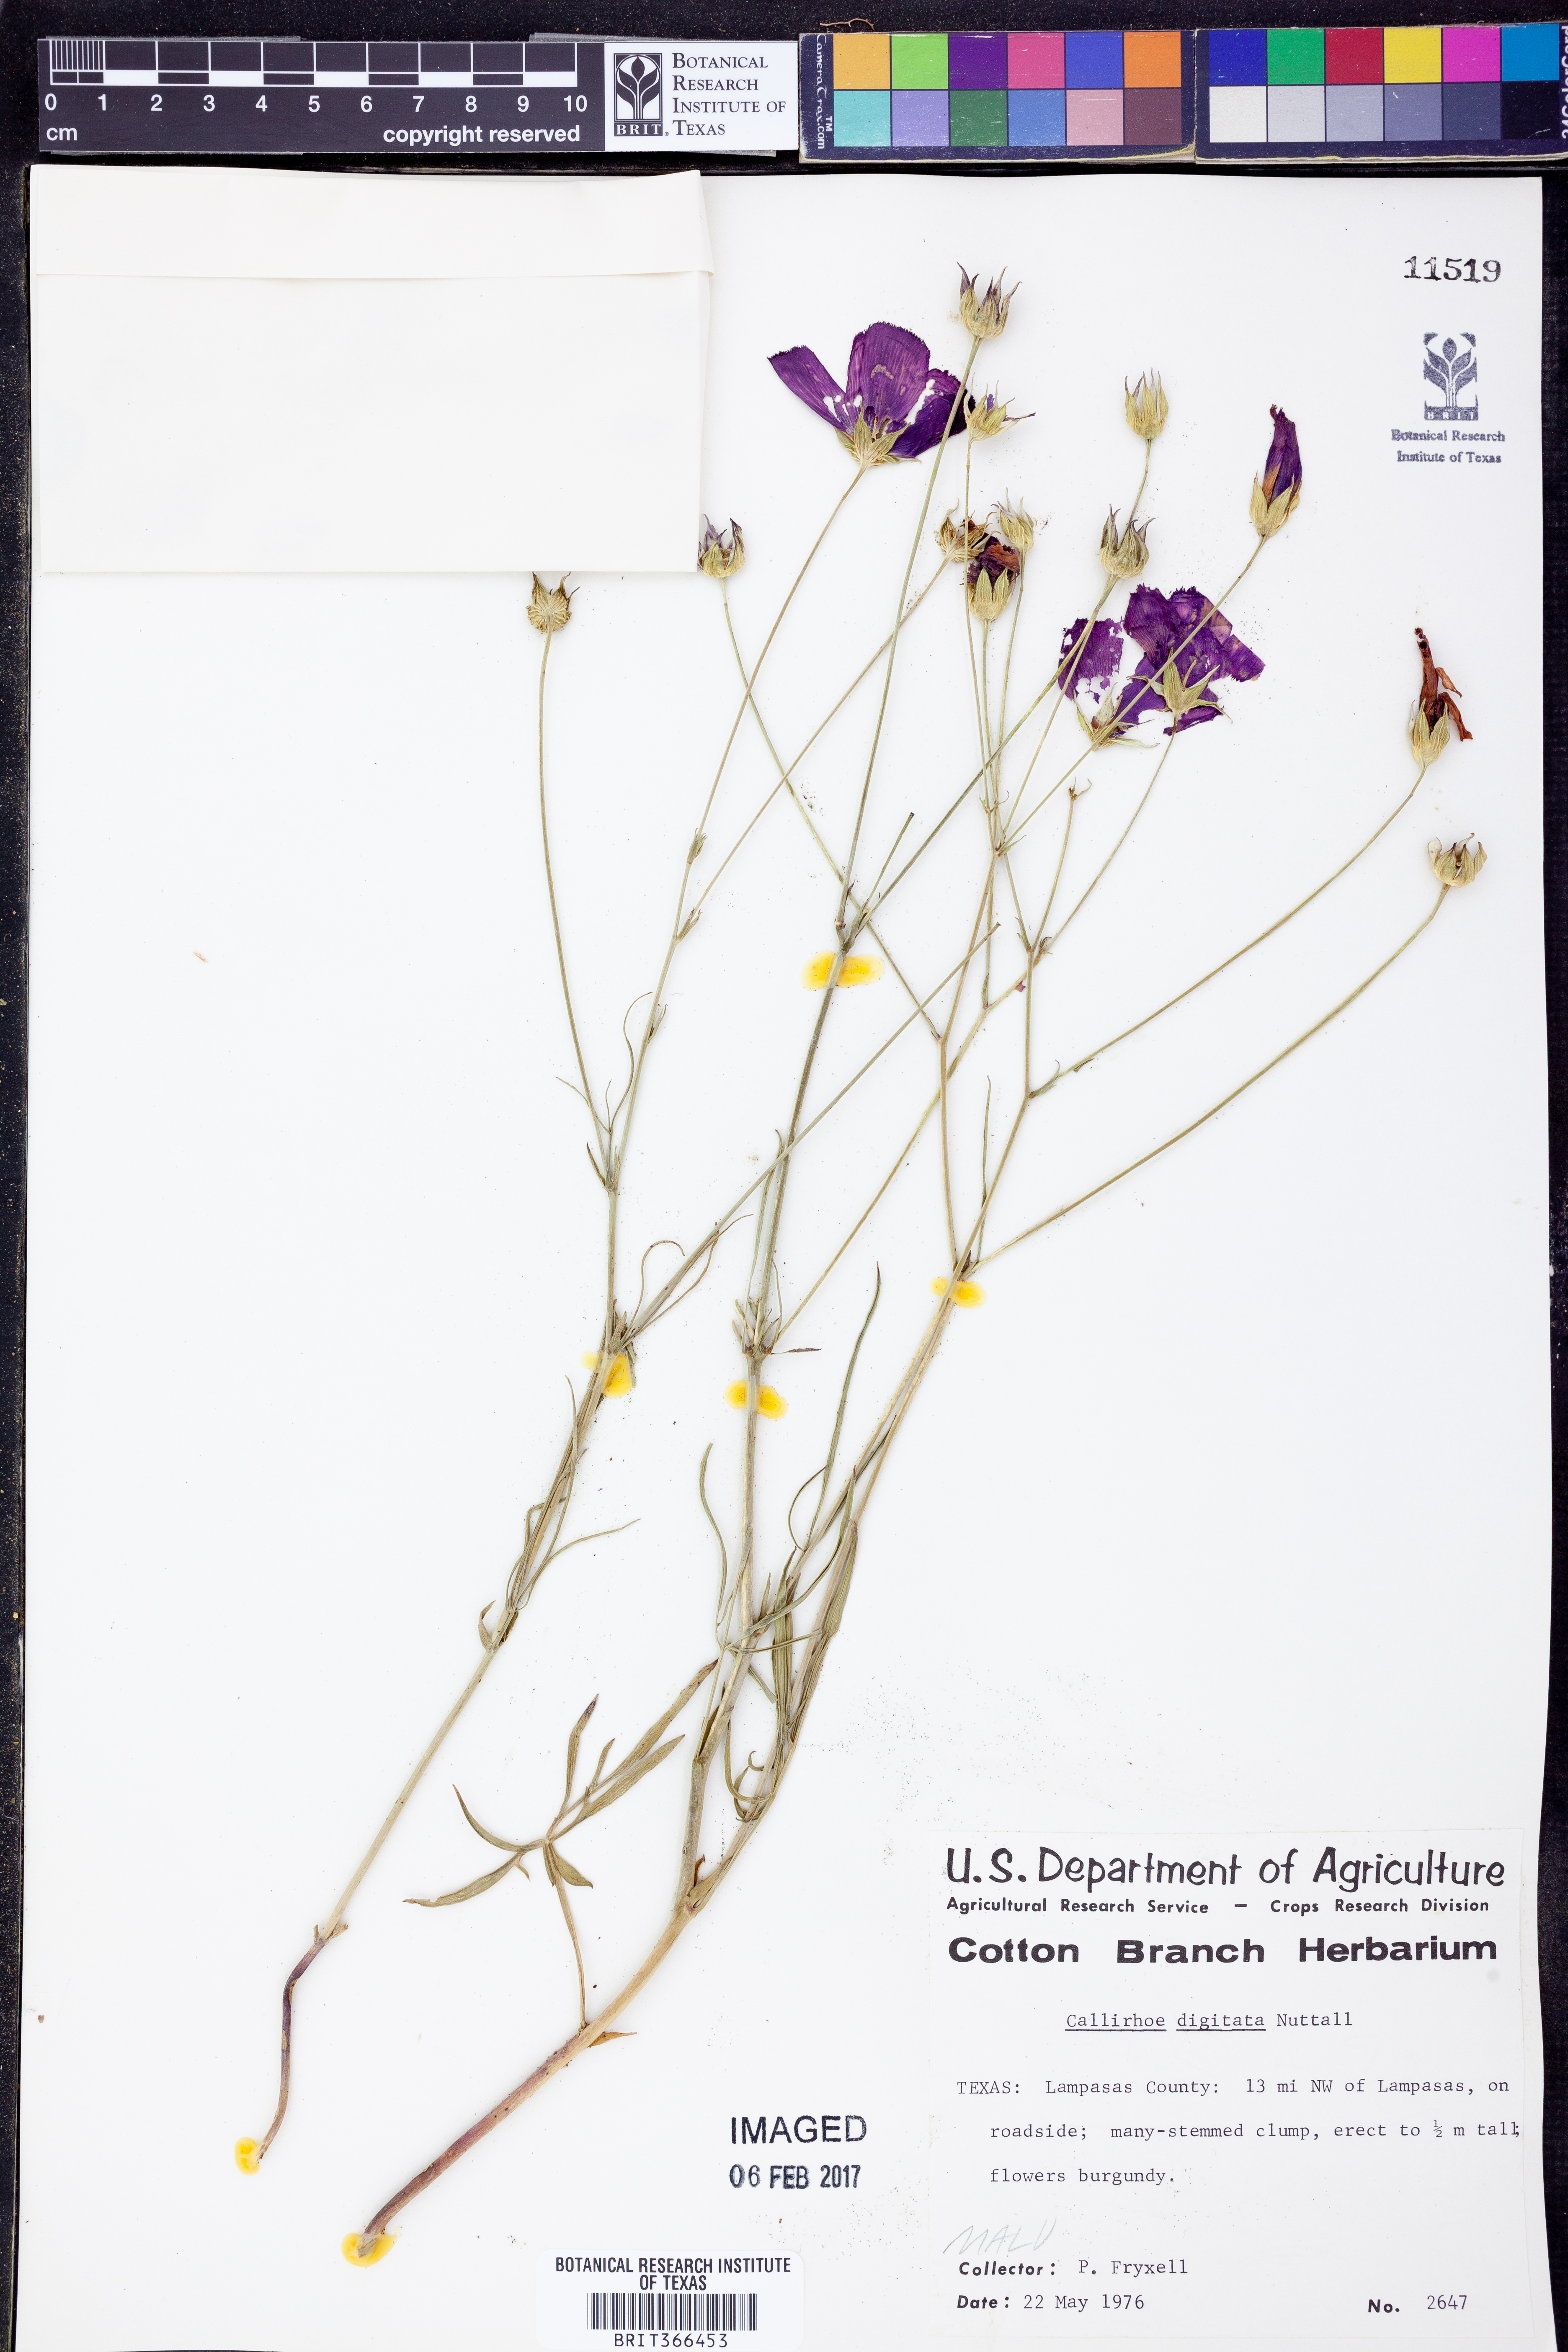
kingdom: Plantae
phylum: Tracheophyta
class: Magnoliopsida
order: Malvales
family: Malvaceae
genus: Callirhoe
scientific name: Callirhoe digitata
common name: Finger poppy-mallow
